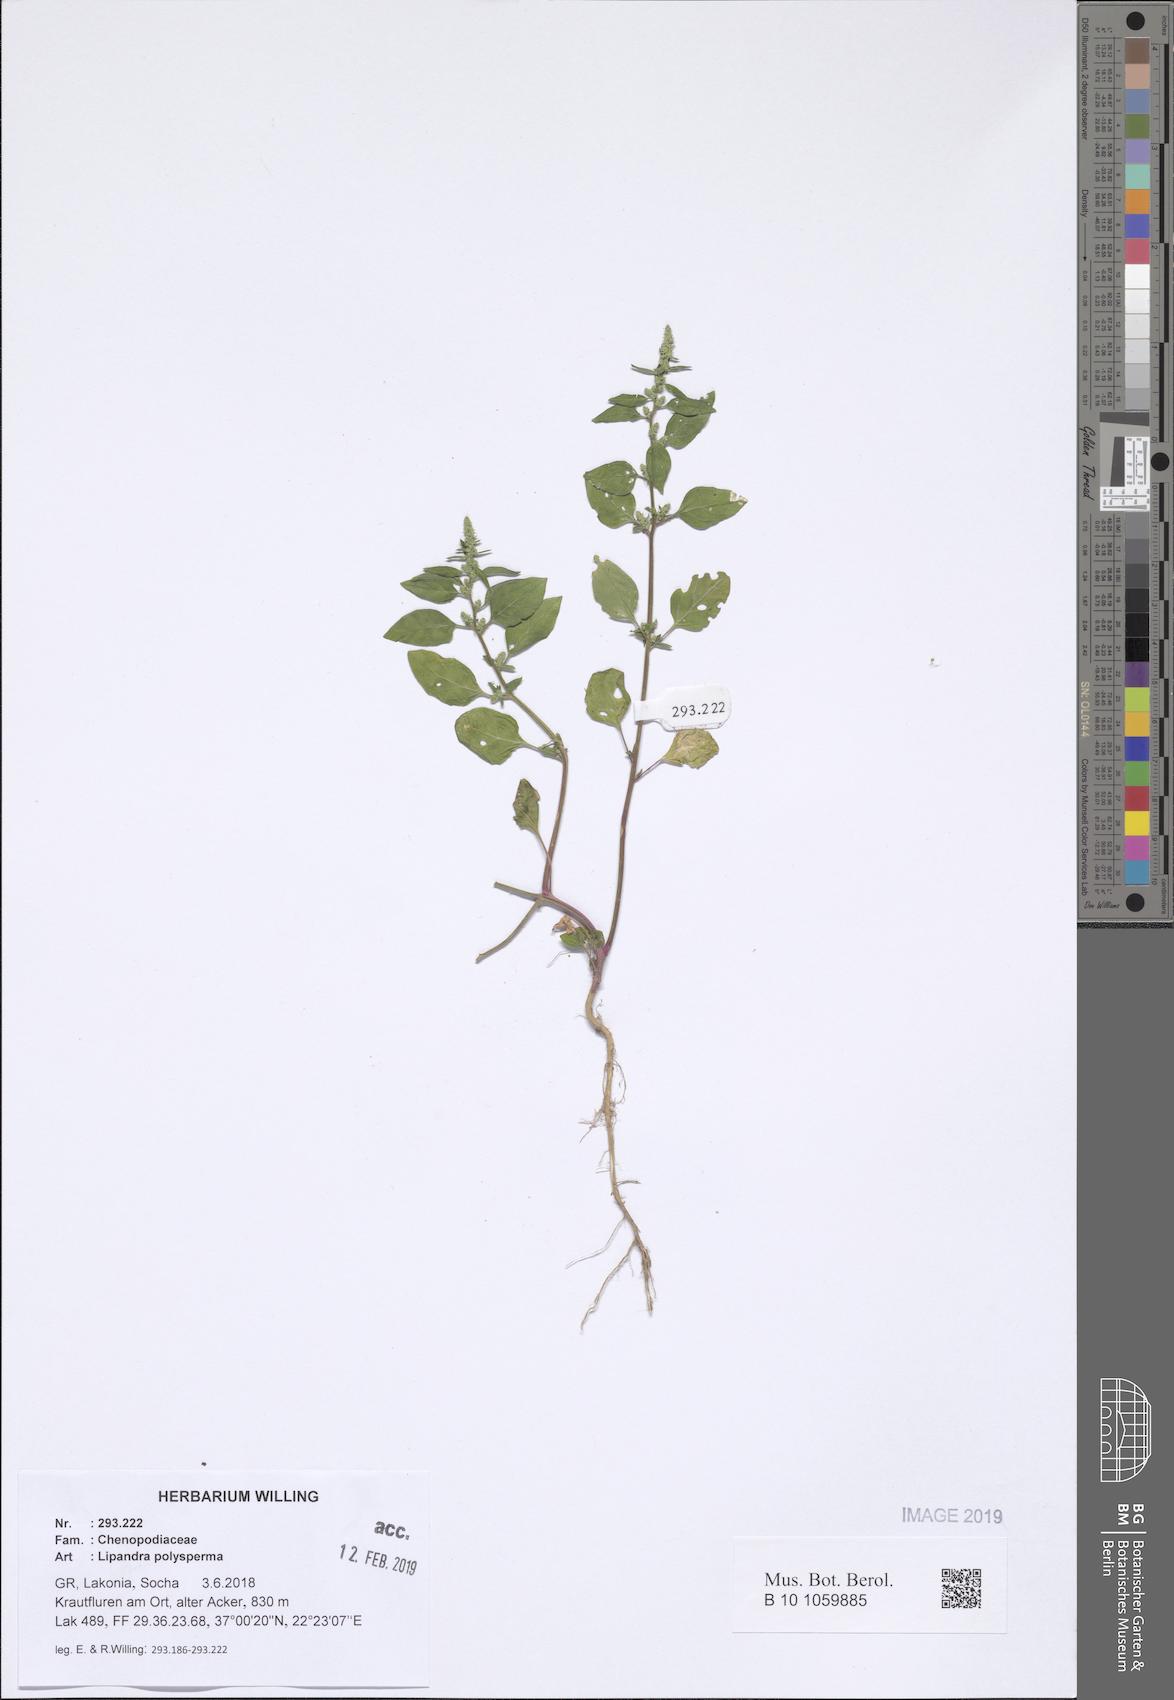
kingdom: Plantae
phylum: Tracheophyta
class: Magnoliopsida
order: Caryophyllales
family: Amaranthaceae
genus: Lipandra
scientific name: Lipandra polysperma
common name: Many-seed goosefoot
